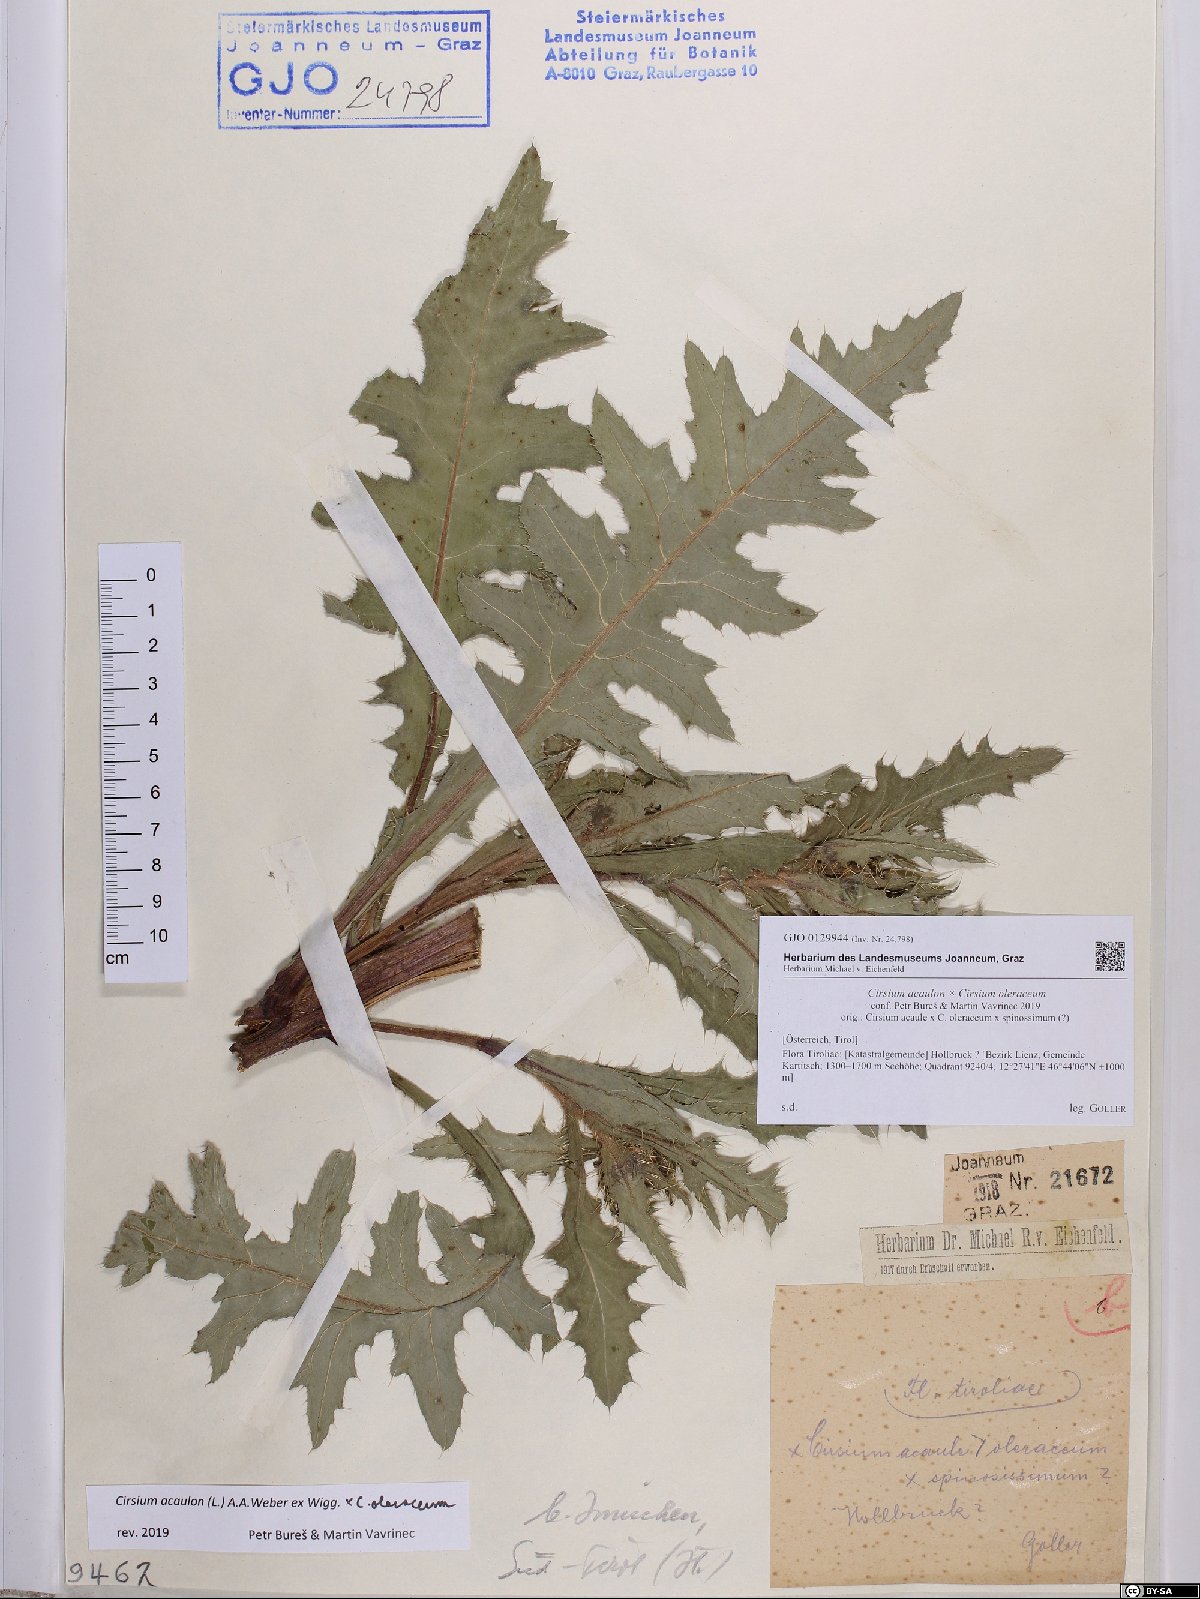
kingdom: Plantae
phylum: Tracheophyta
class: Magnoliopsida
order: Asterales
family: Asteraceae
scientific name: Asteraceae
